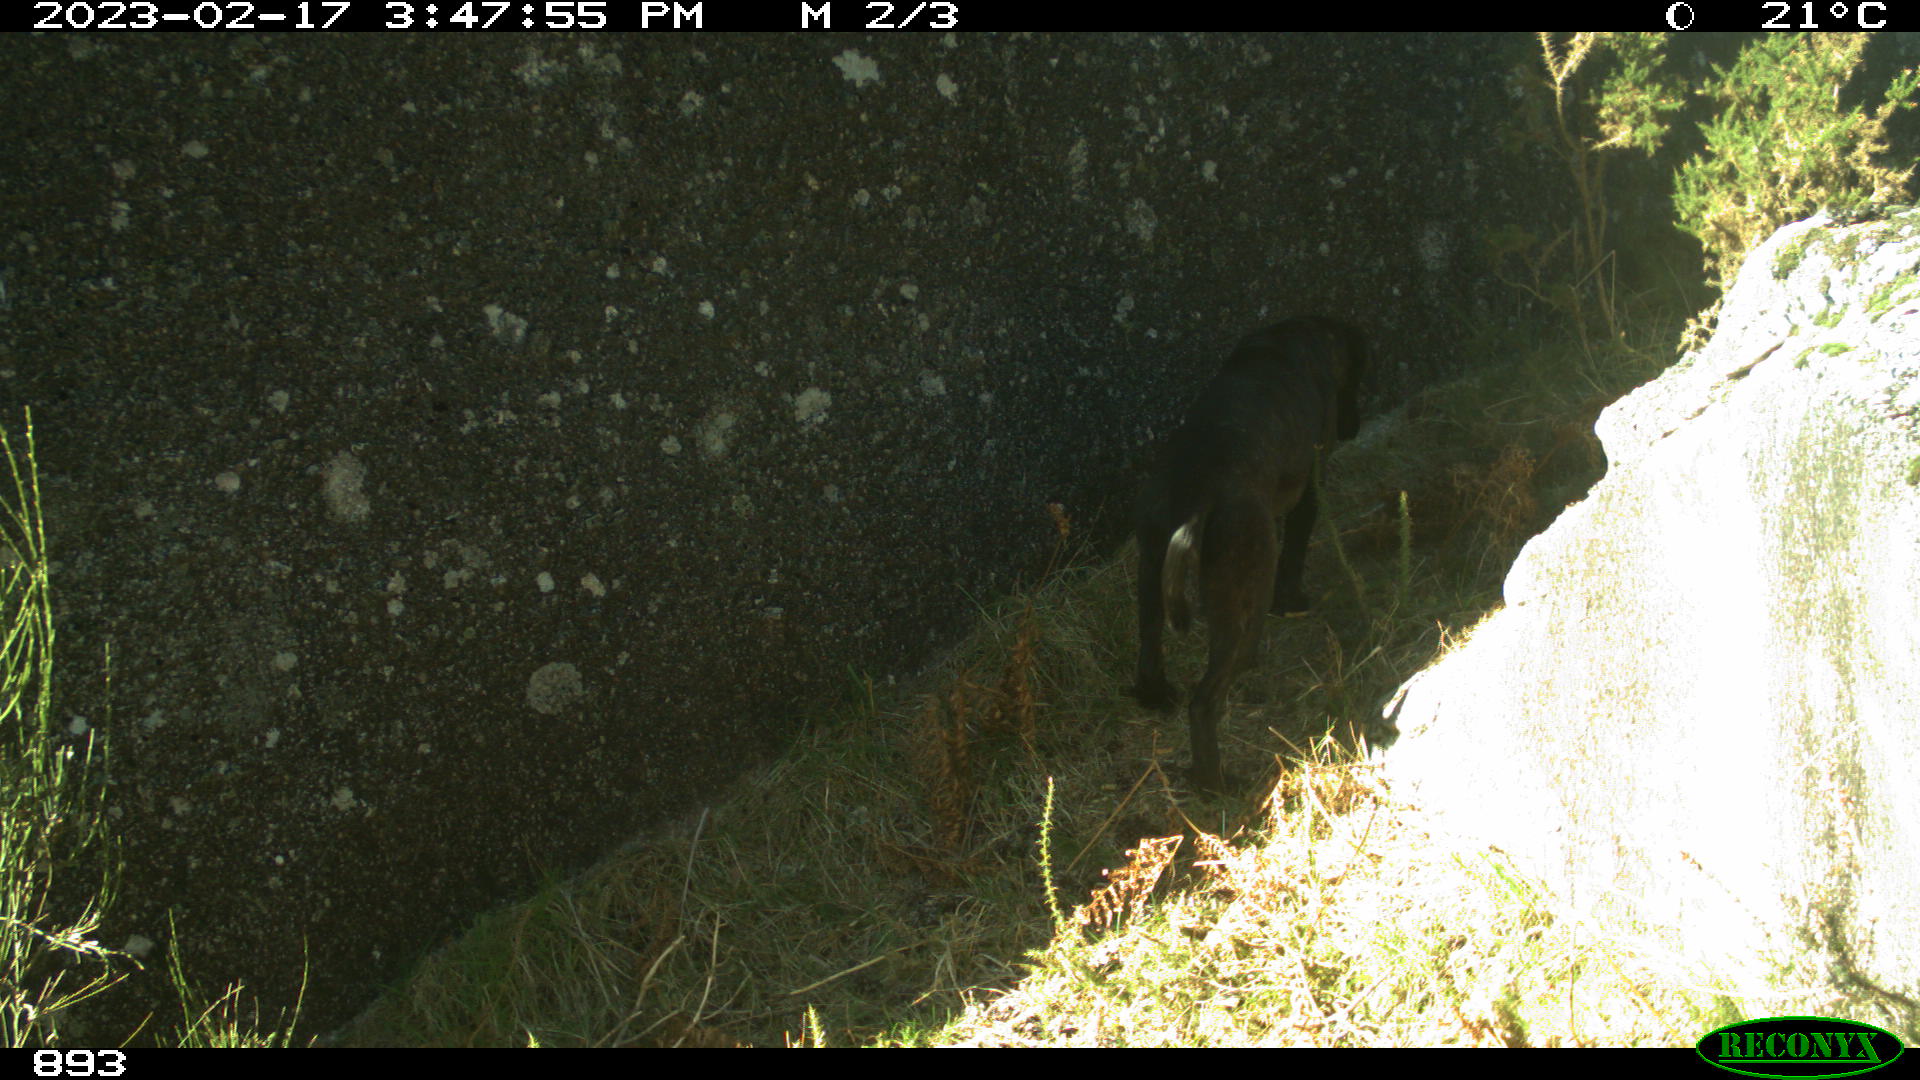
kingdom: Animalia
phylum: Chordata
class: Mammalia
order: Carnivora
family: Canidae
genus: Canis
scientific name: Canis lupus
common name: Gray wolf
